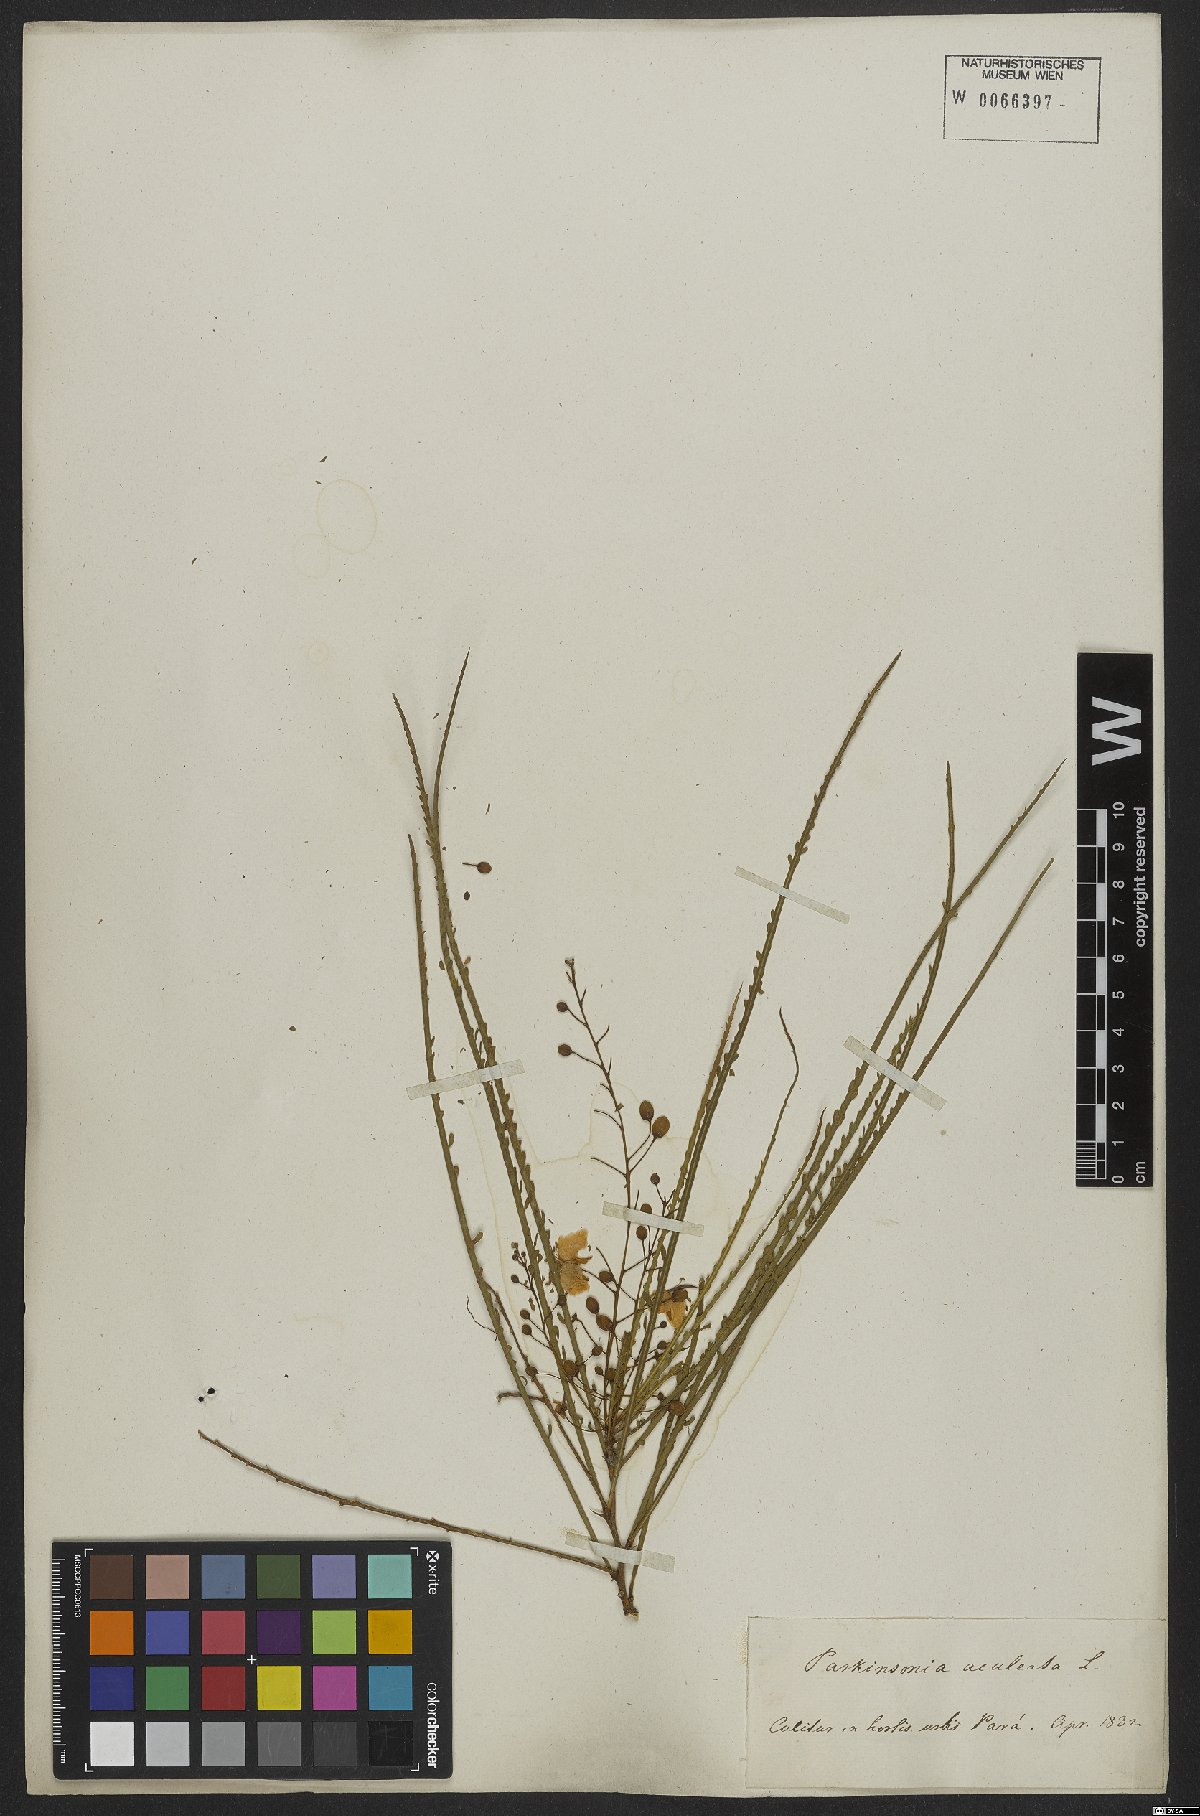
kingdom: Plantae
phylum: Tracheophyta
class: Magnoliopsida
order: Fabales
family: Fabaceae
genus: Parkinsonia
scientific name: Parkinsonia aculeata
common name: Jerusalem thorn
